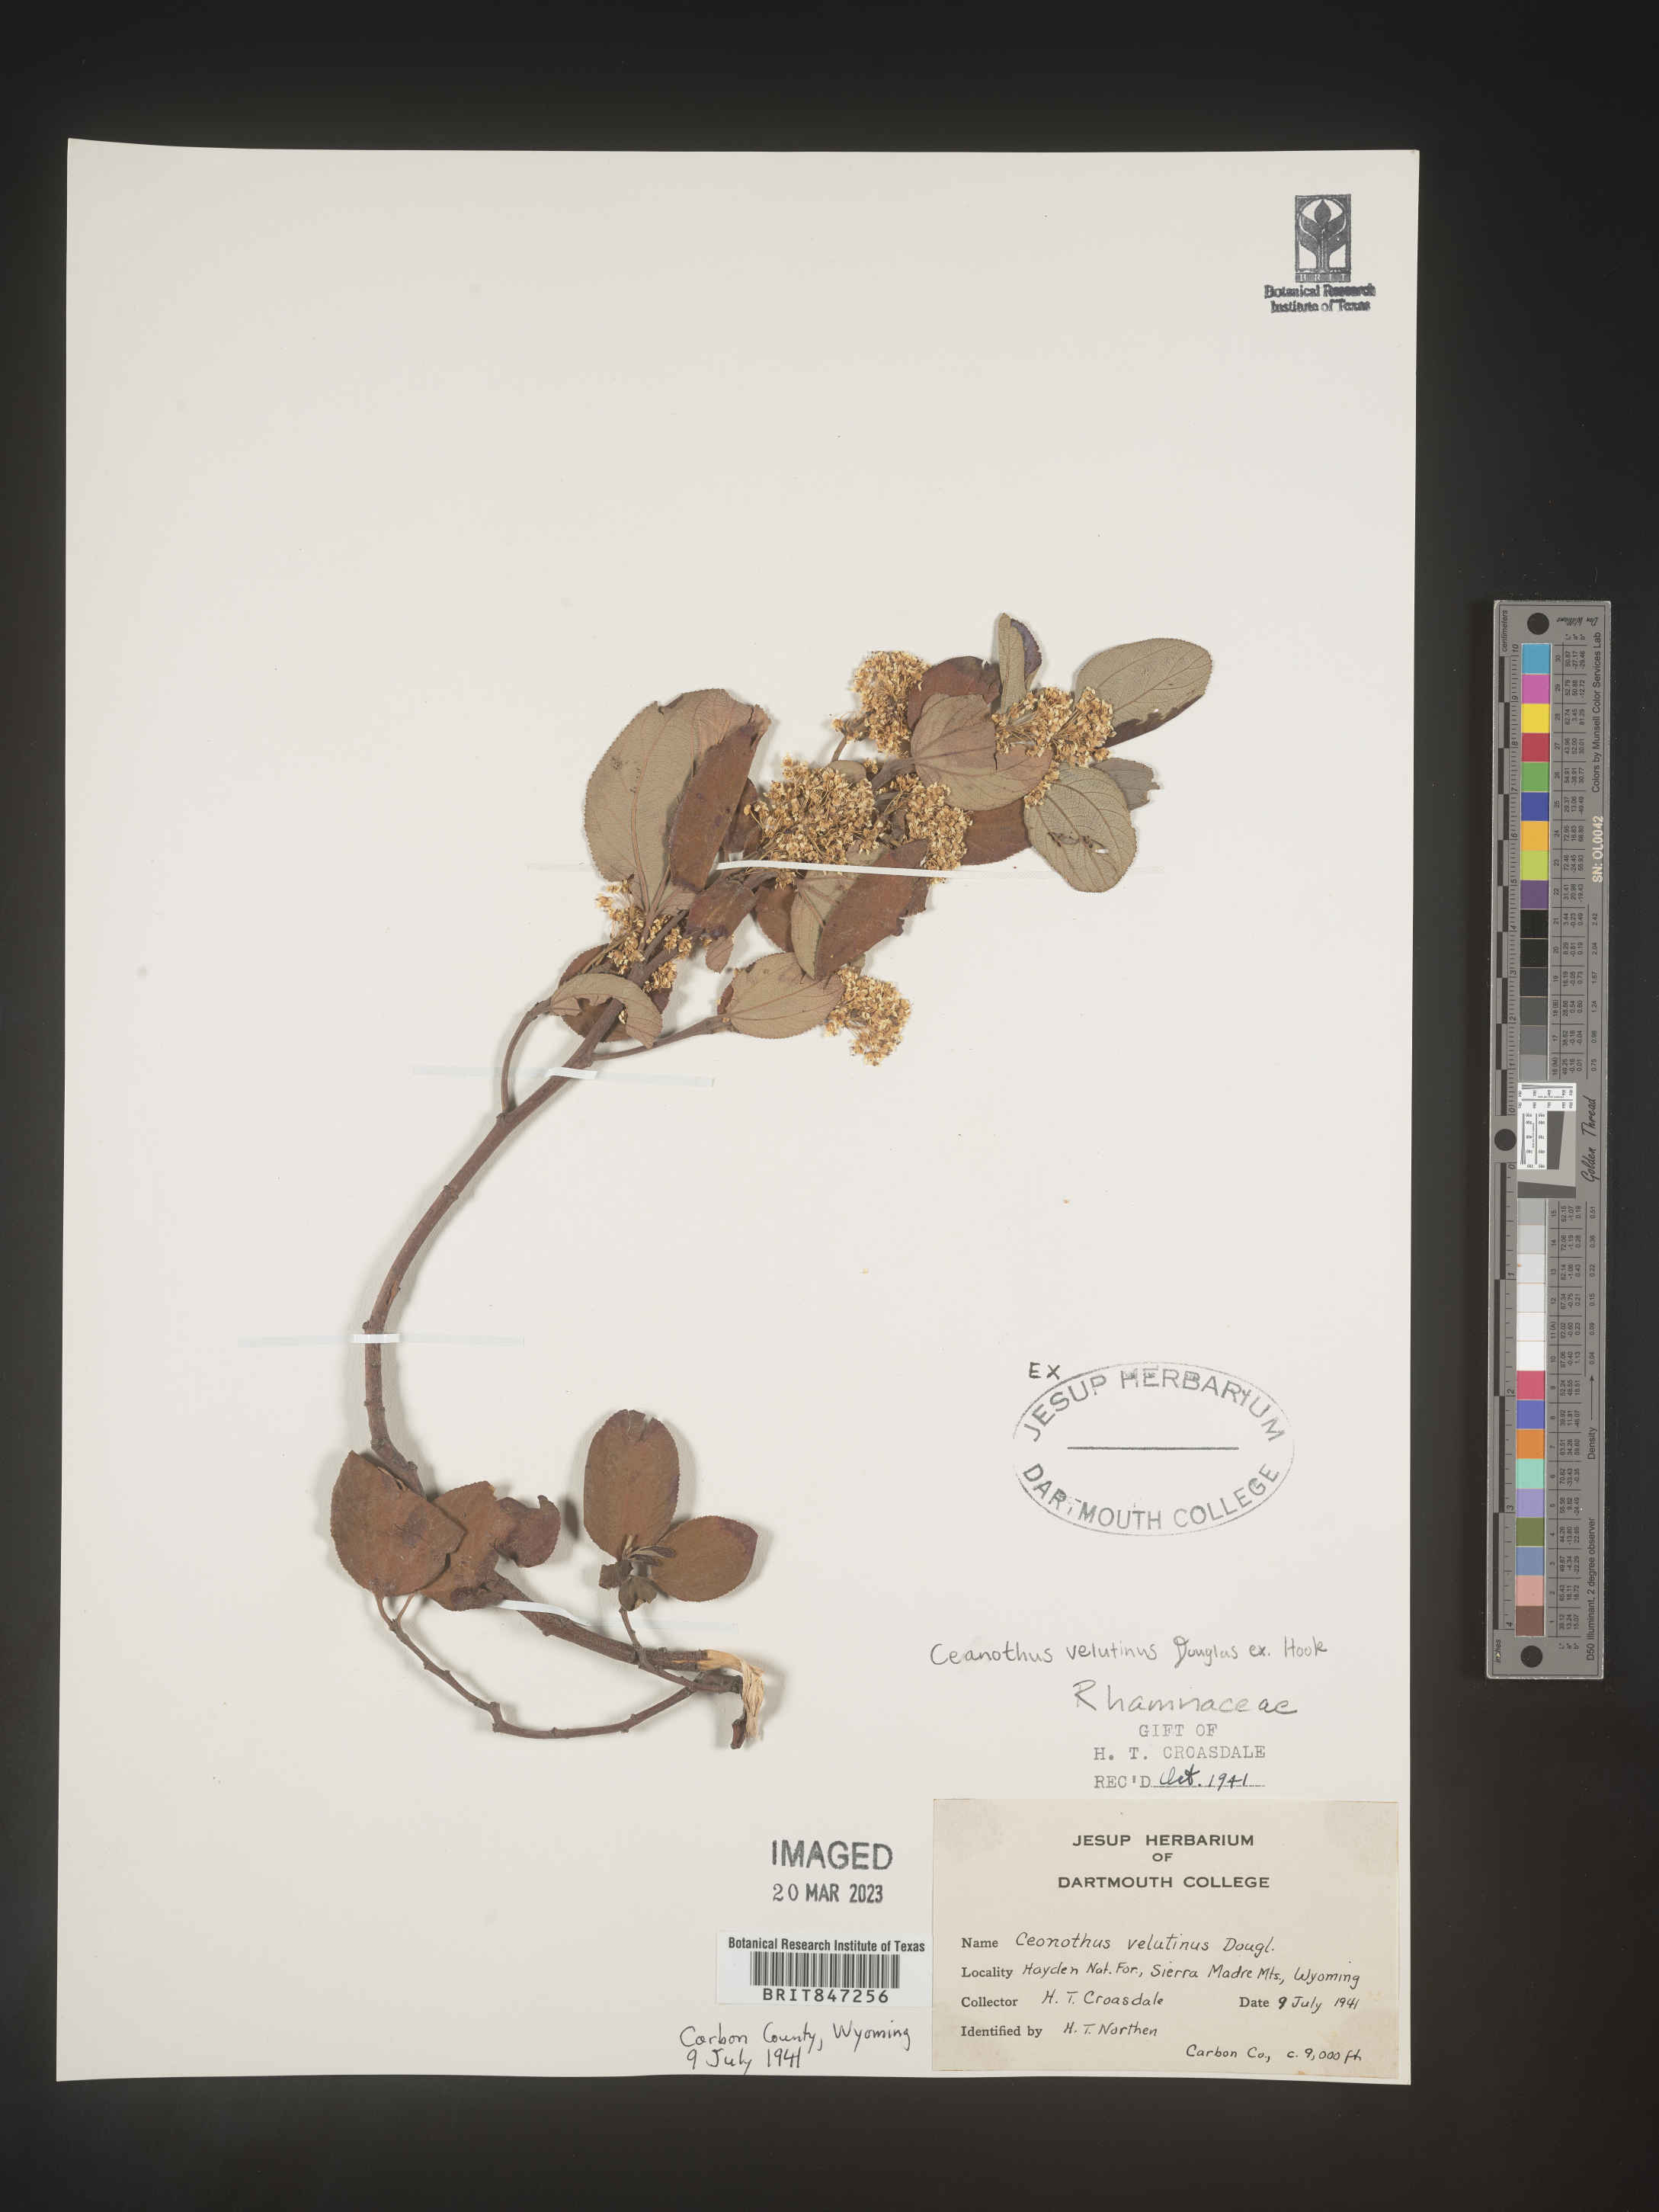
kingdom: Plantae
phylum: Tracheophyta
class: Magnoliopsida
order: Rosales
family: Rhamnaceae
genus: Ceanothus
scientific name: Ceanothus velutinus
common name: Snowbrush
